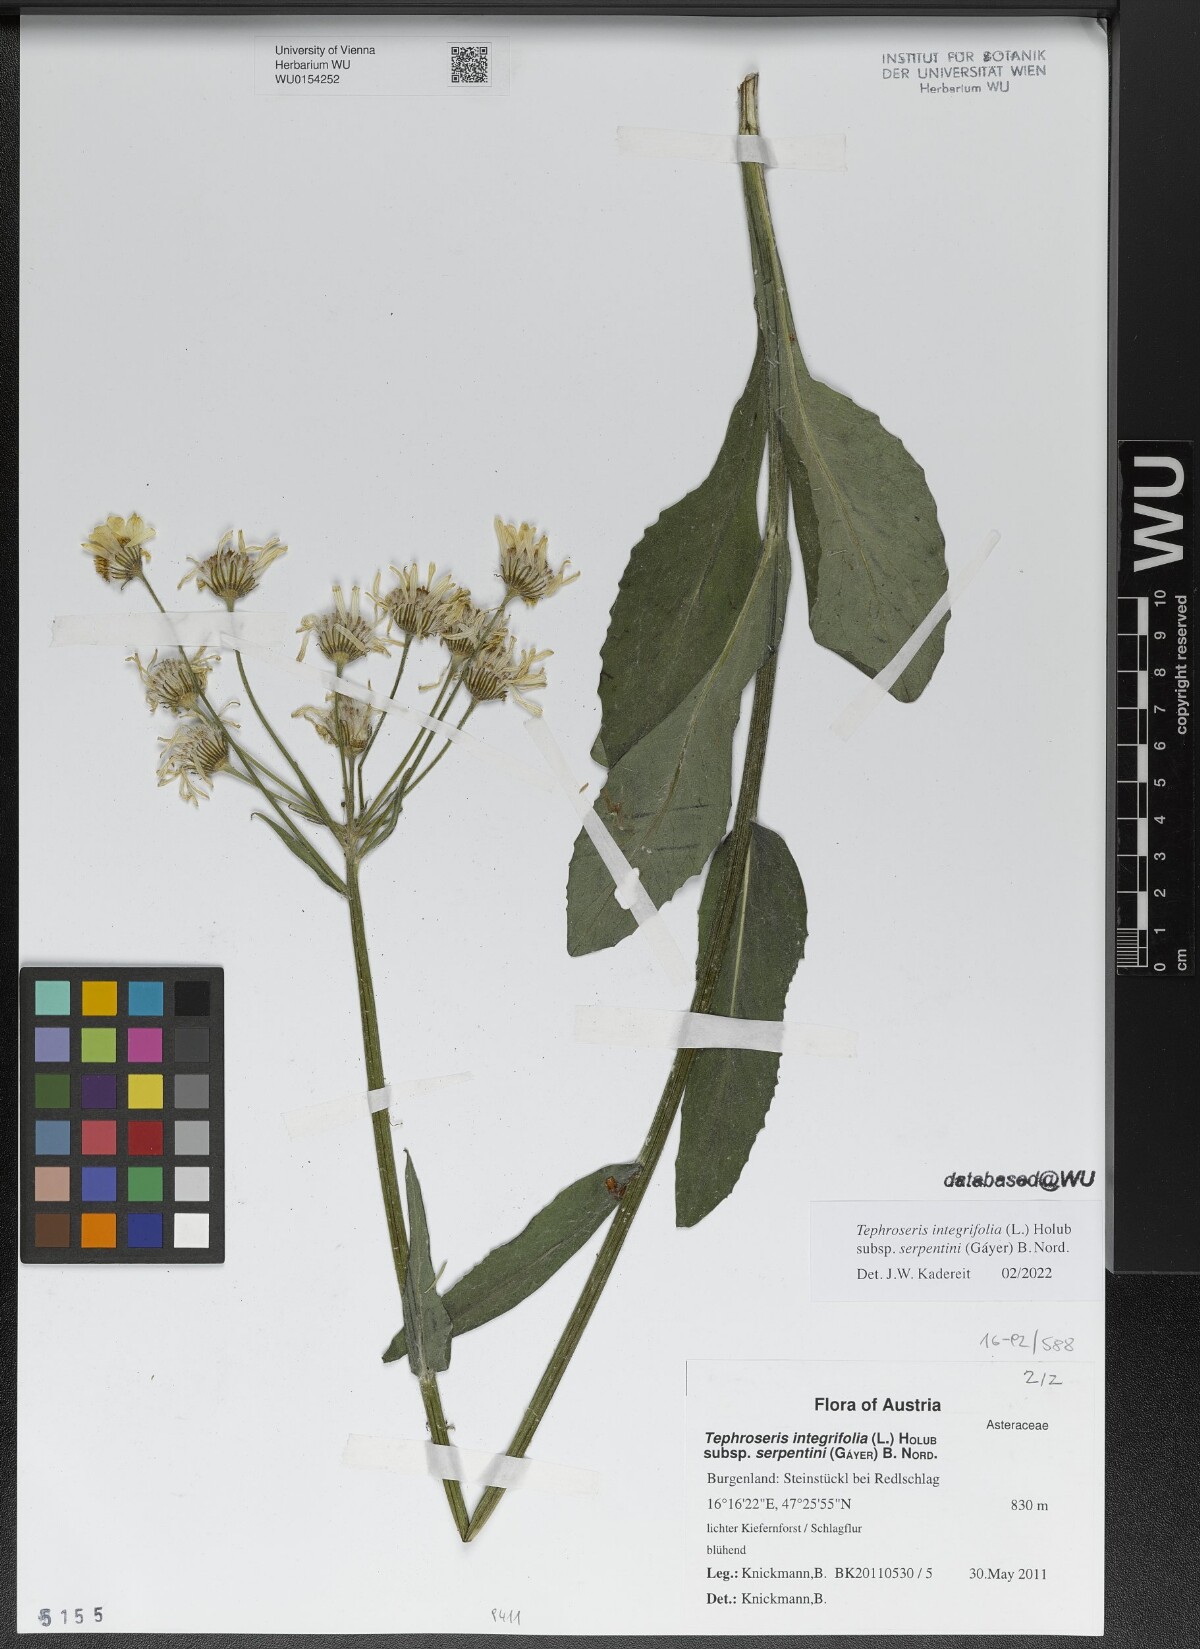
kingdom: Plantae
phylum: Tracheophyta
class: Magnoliopsida
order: Asterales
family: Asteraceae
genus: Tephroseris
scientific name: Tephroseris integrifolia
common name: Field fleawort
